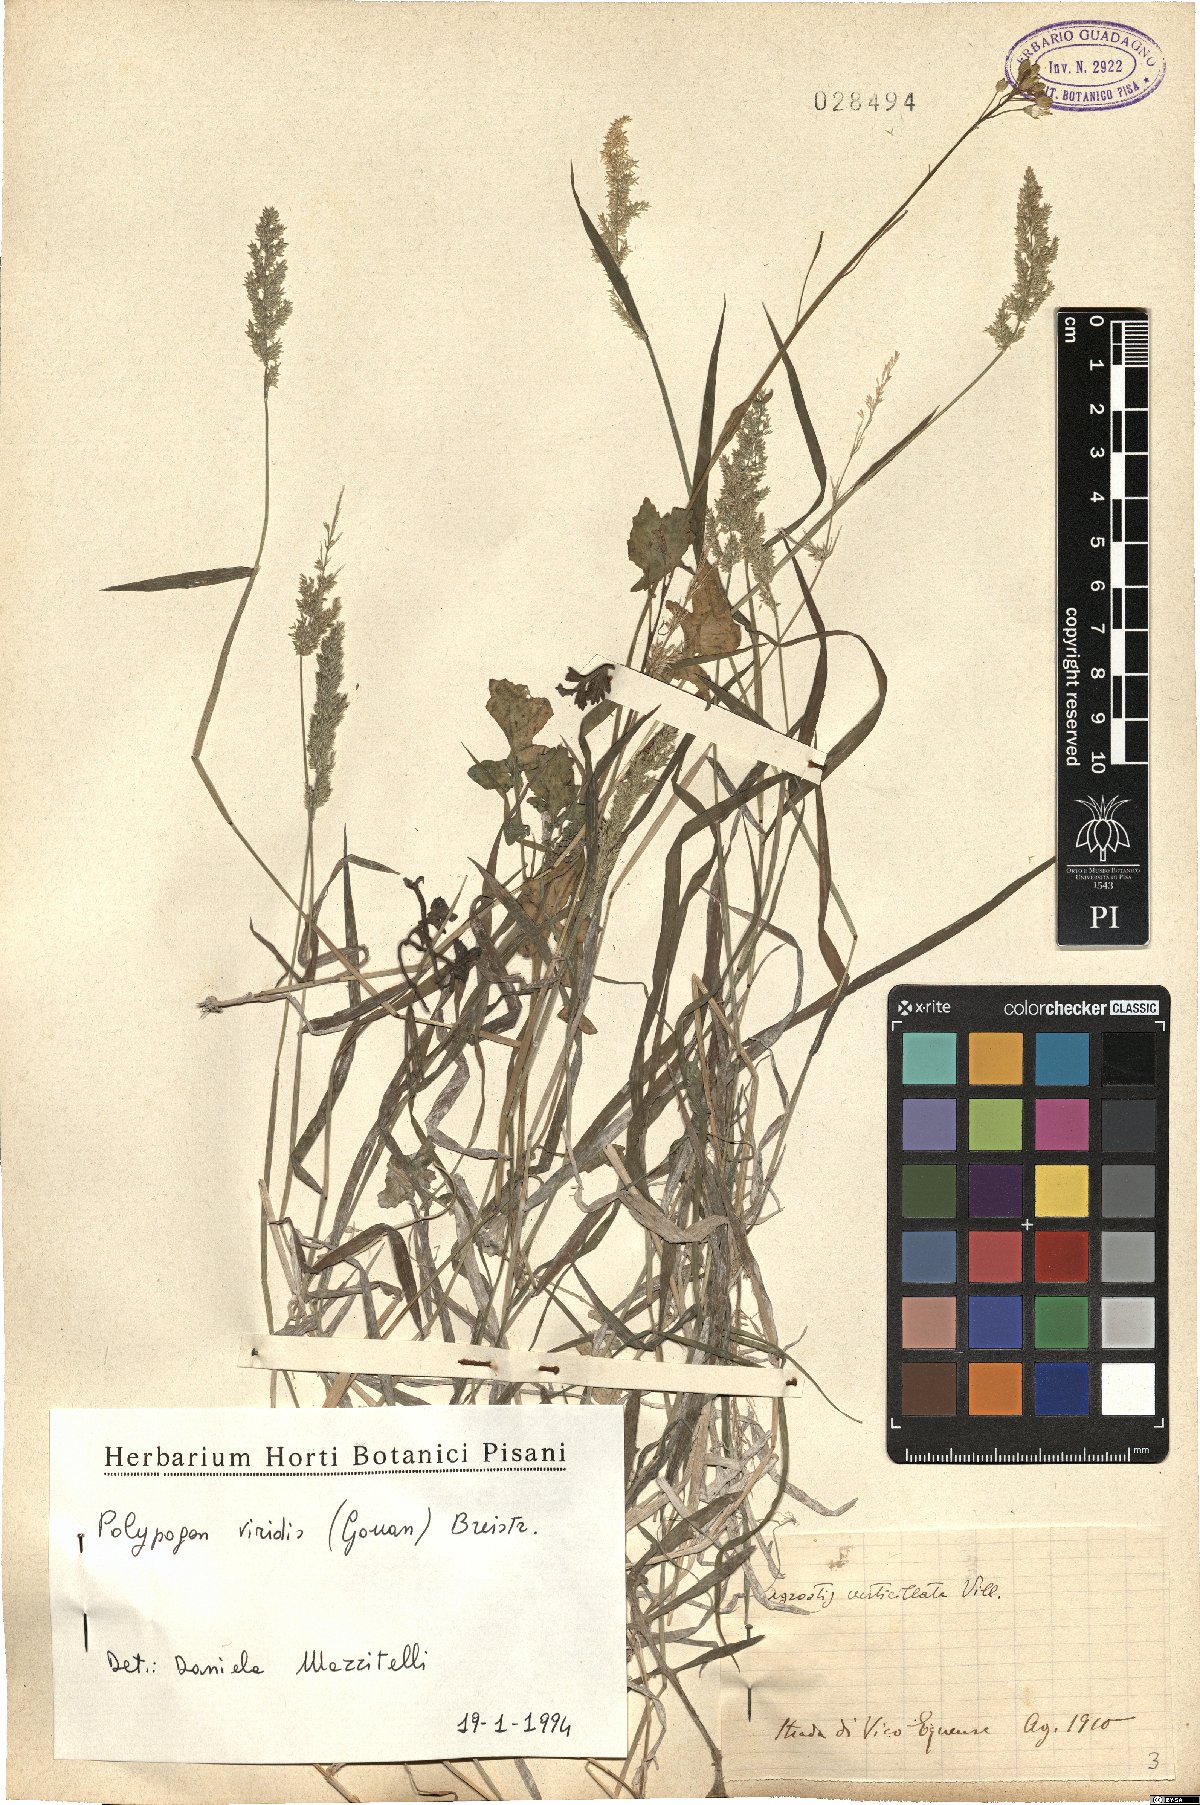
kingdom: Plantae
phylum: Tracheophyta
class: Liliopsida
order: Poales
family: Poaceae
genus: Polypogon
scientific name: Polypogon viridis
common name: Water bent
